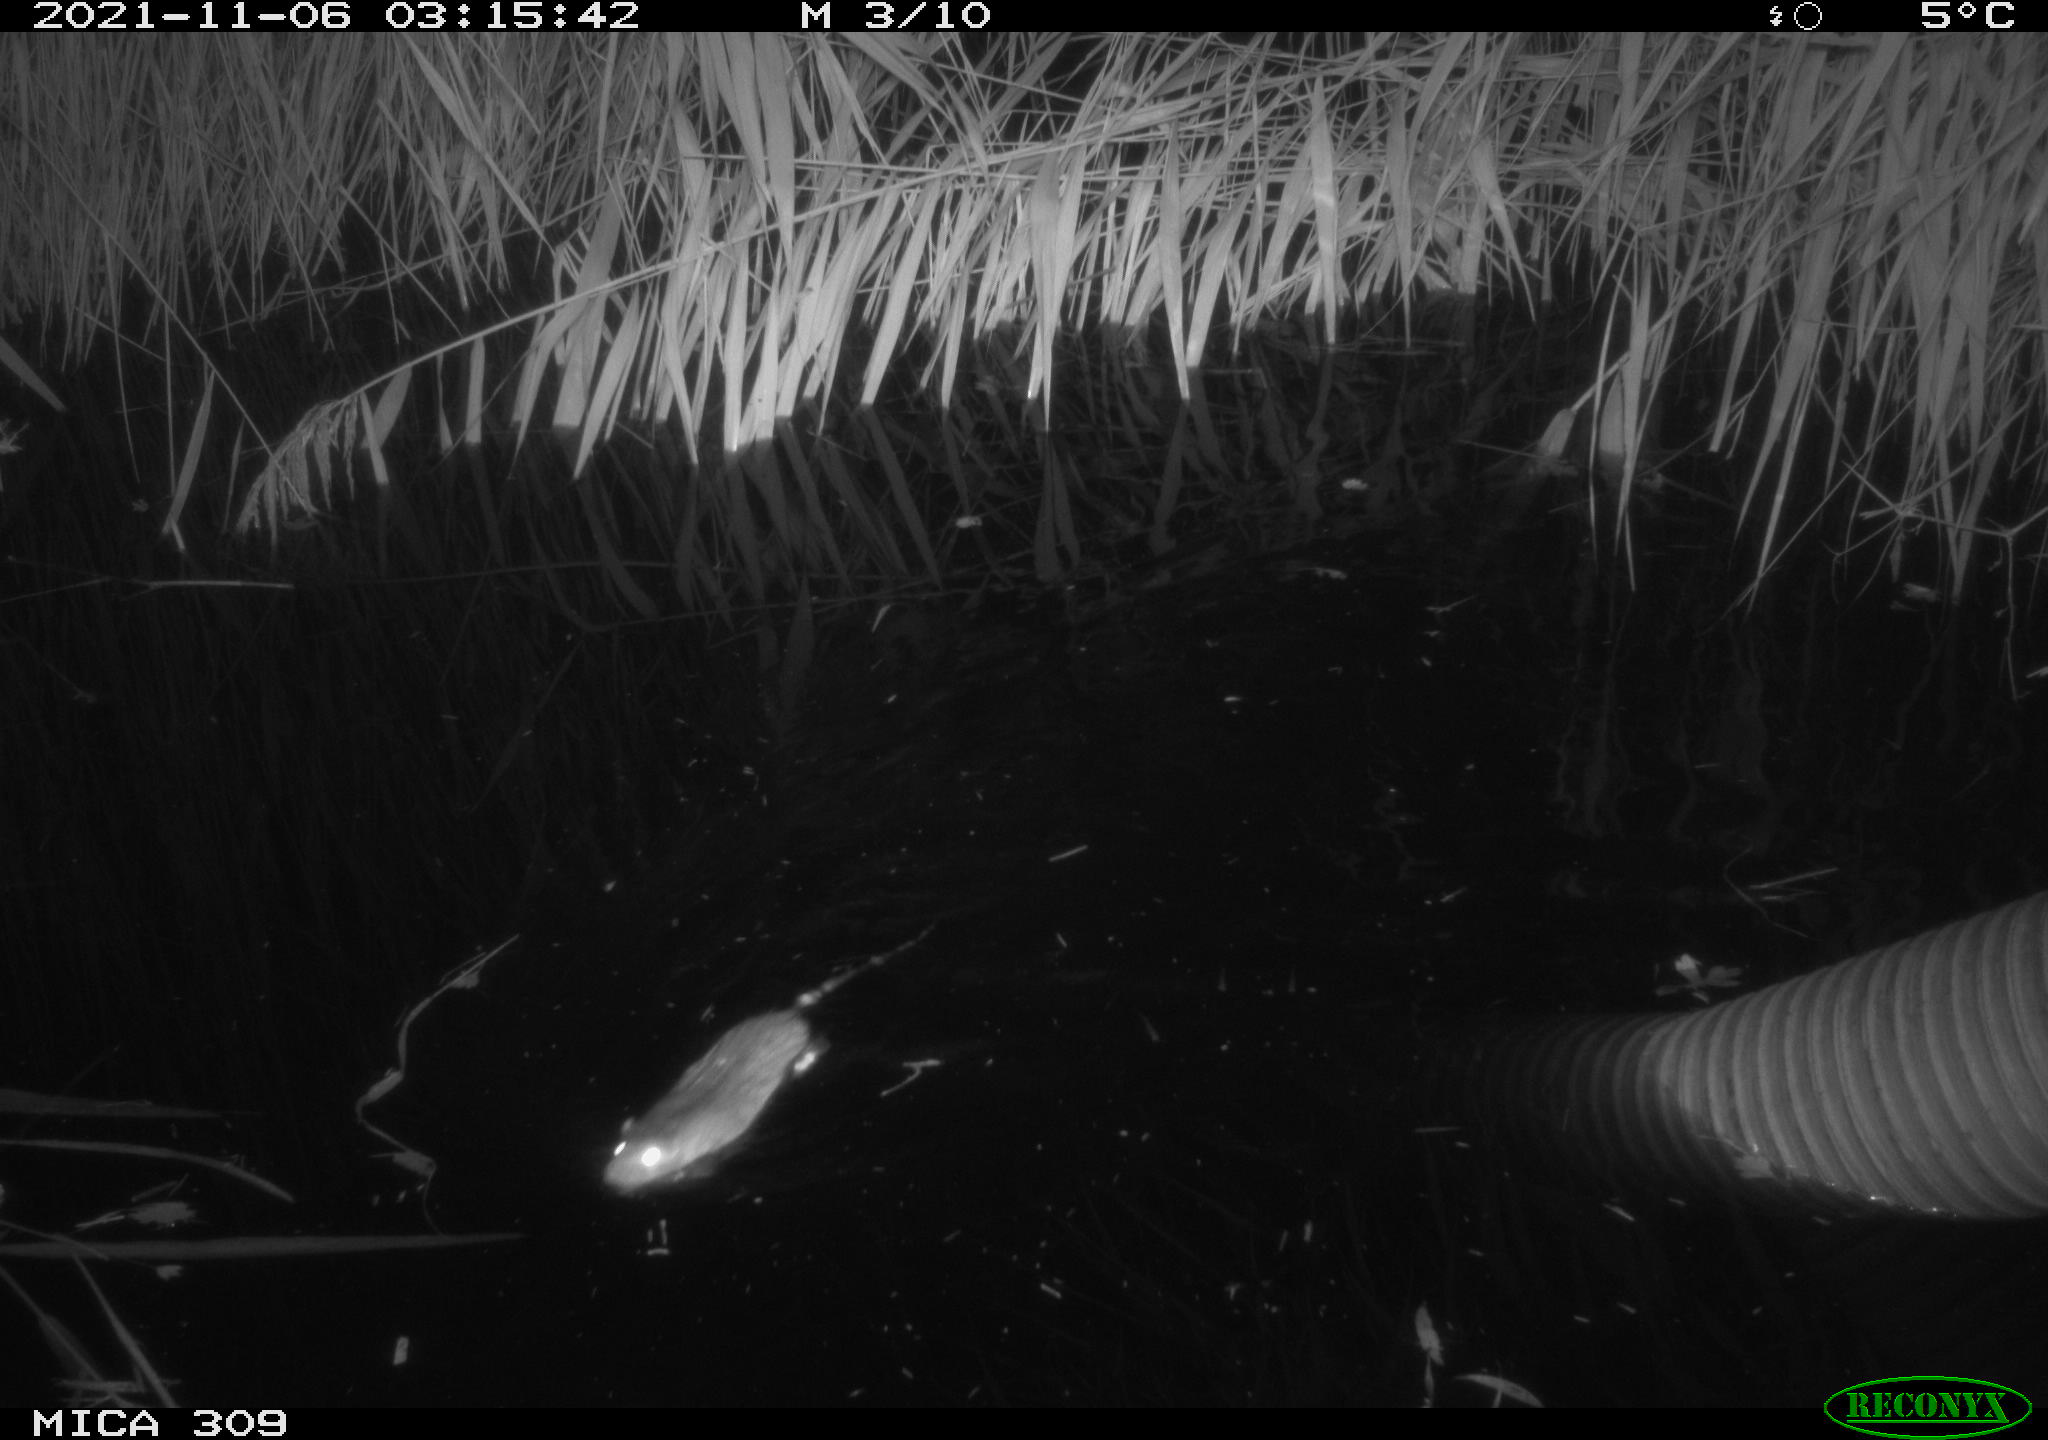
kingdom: Animalia
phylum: Chordata
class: Mammalia
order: Rodentia
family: Muridae
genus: Rattus
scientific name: Rattus norvegicus
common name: Brown rat
